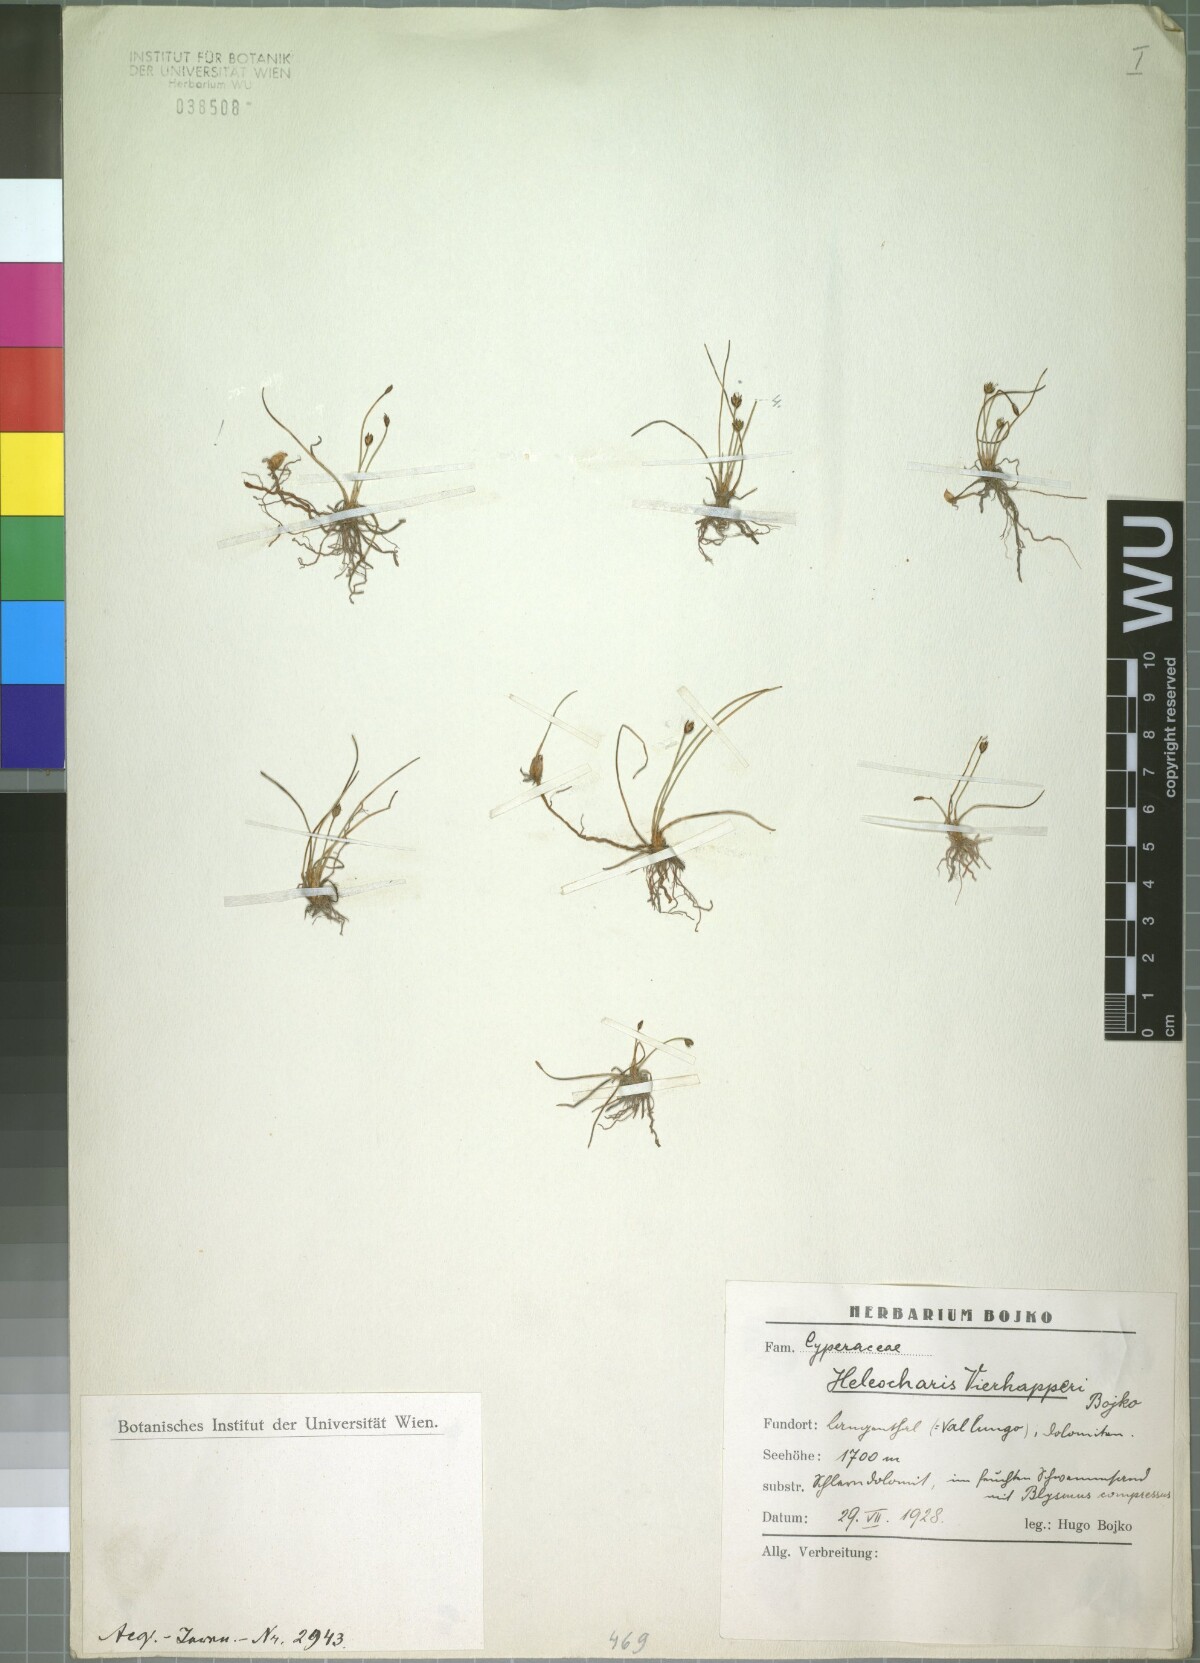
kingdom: Plantae
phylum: Tracheophyta
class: Liliopsida
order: Poales
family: Cyperaceae
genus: Eleocharis
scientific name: Eleocharis quinqueflora
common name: Few-flowered spike-rush
